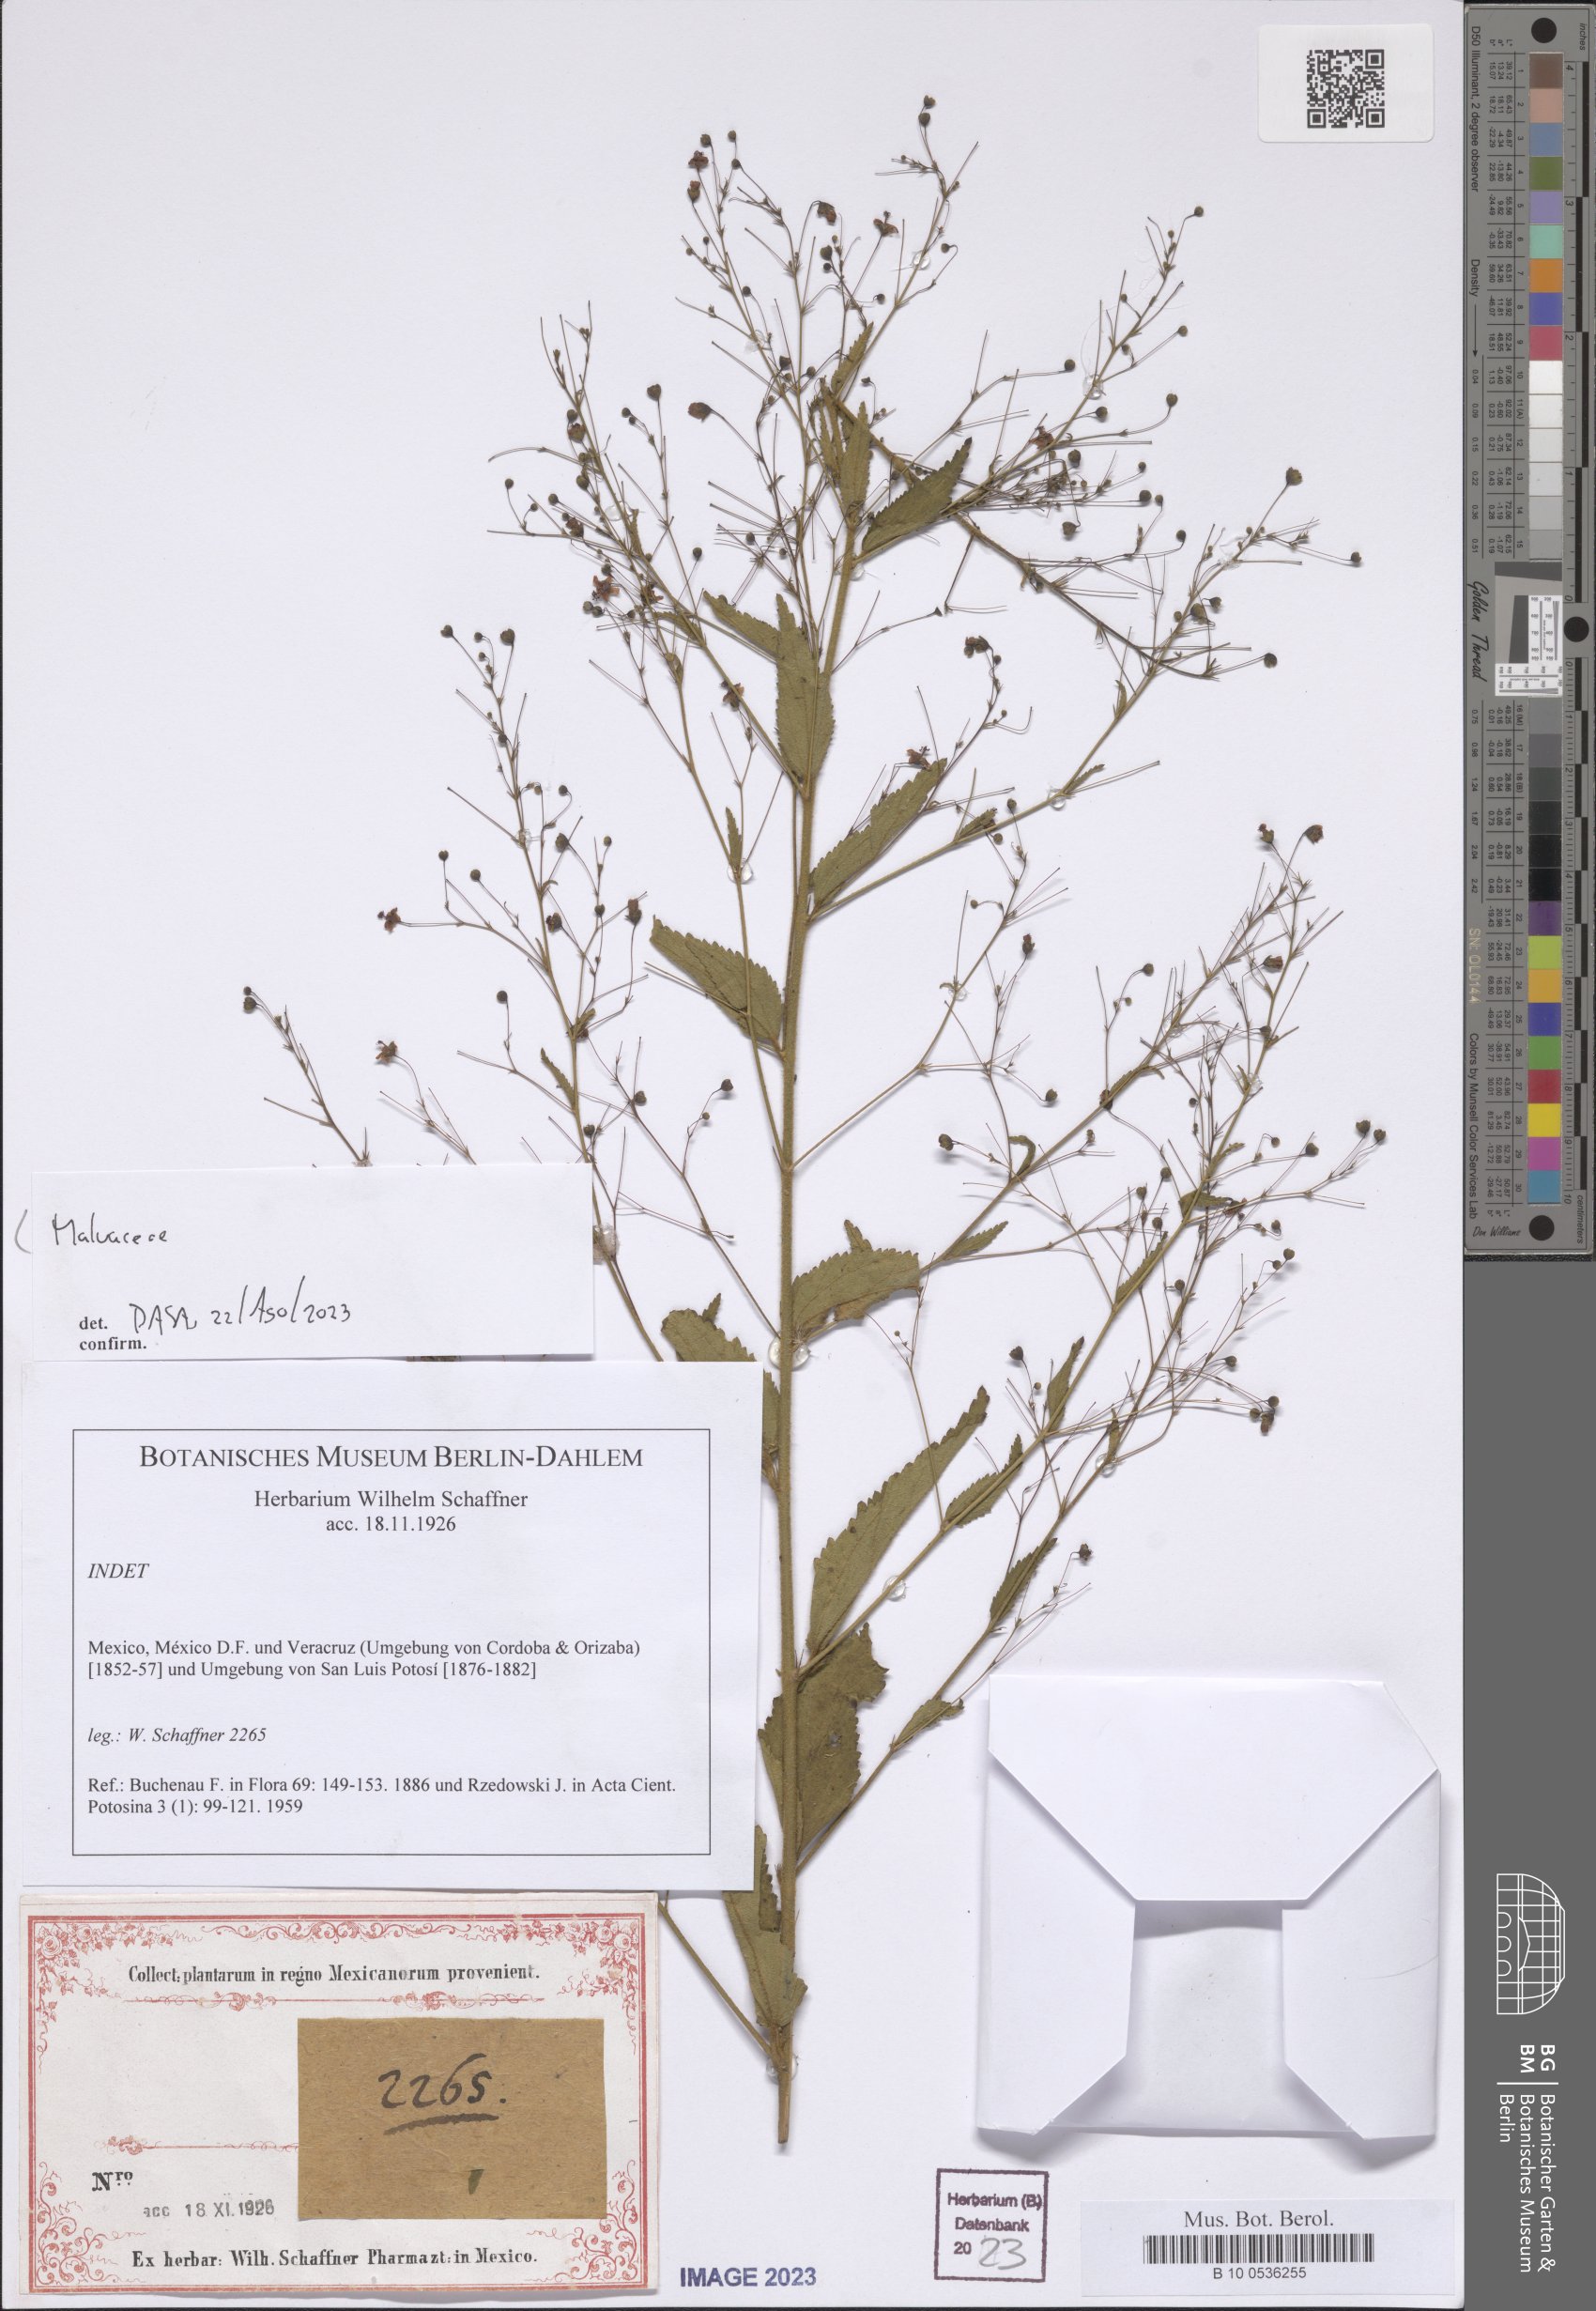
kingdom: Plantae
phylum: Tracheophyta
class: Magnoliopsida
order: Malvales
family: Malvaceae
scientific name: Malvaceae
